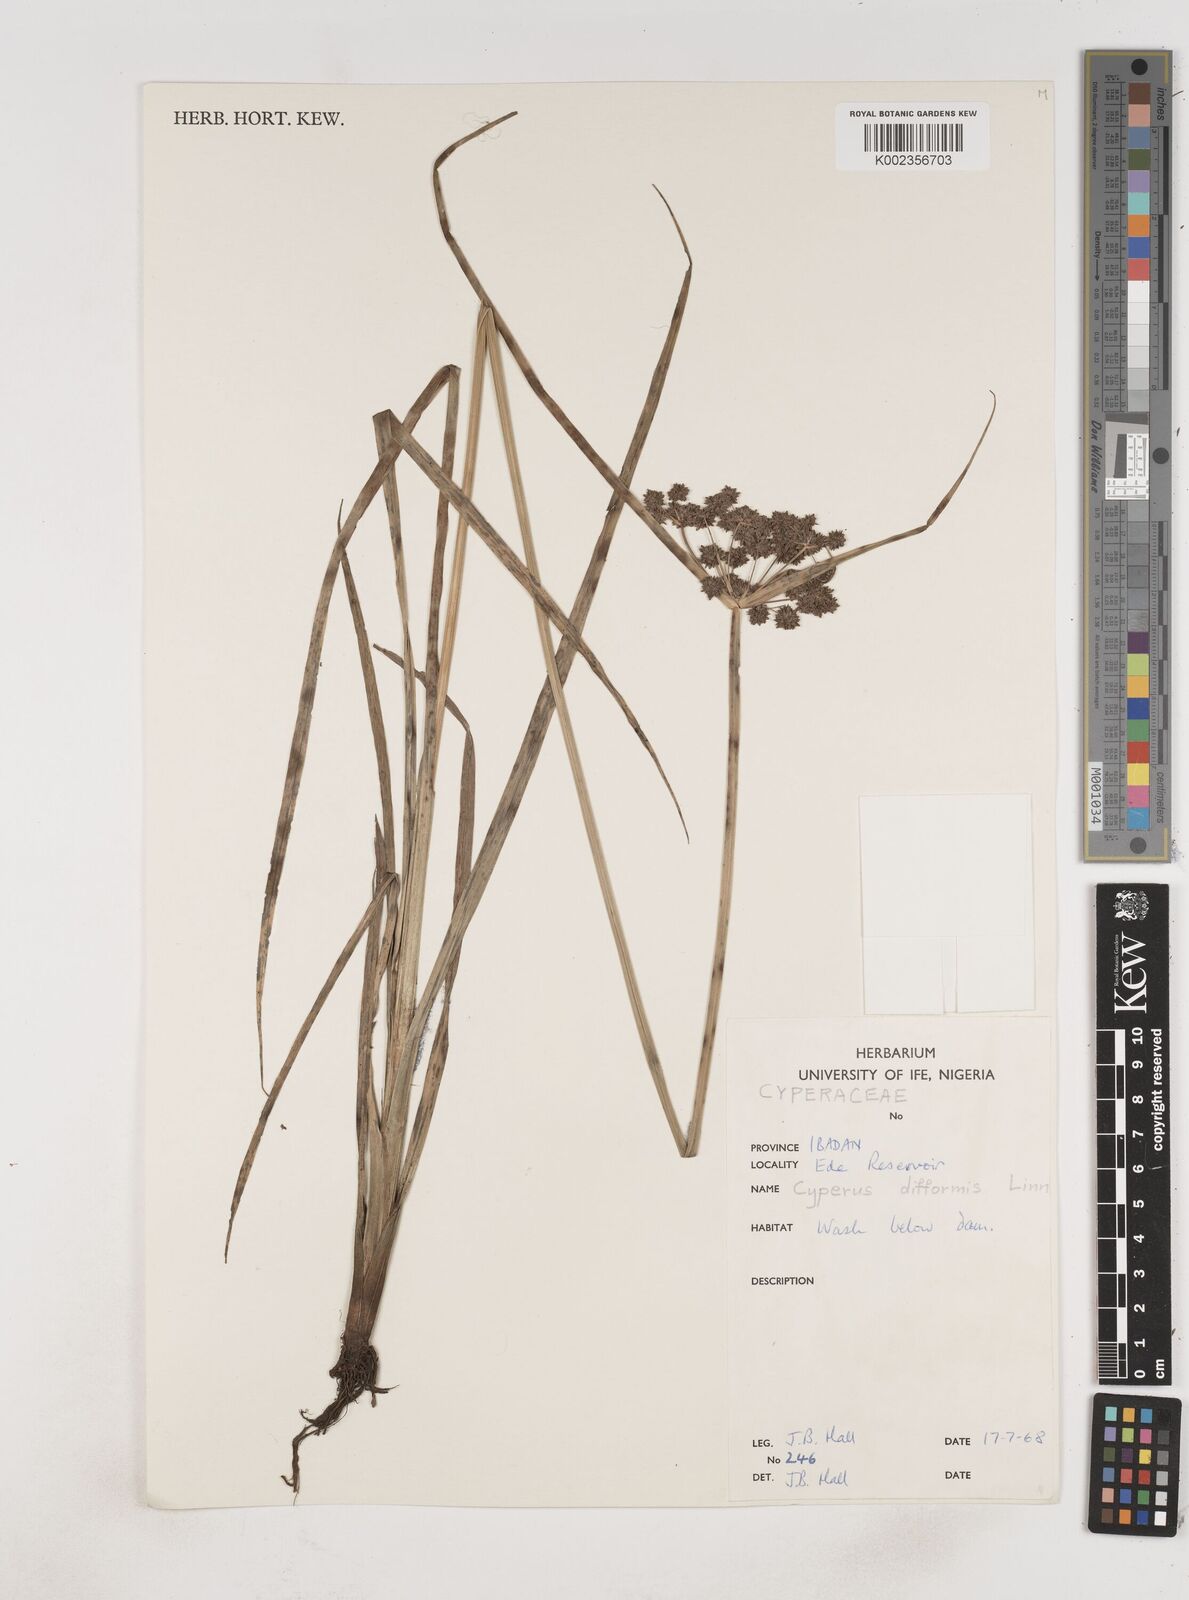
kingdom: Plantae
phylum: Tracheophyta
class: Liliopsida
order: Poales
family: Cyperaceae
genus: Cyperus
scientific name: Cyperus difformis
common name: Variable flatsedge
